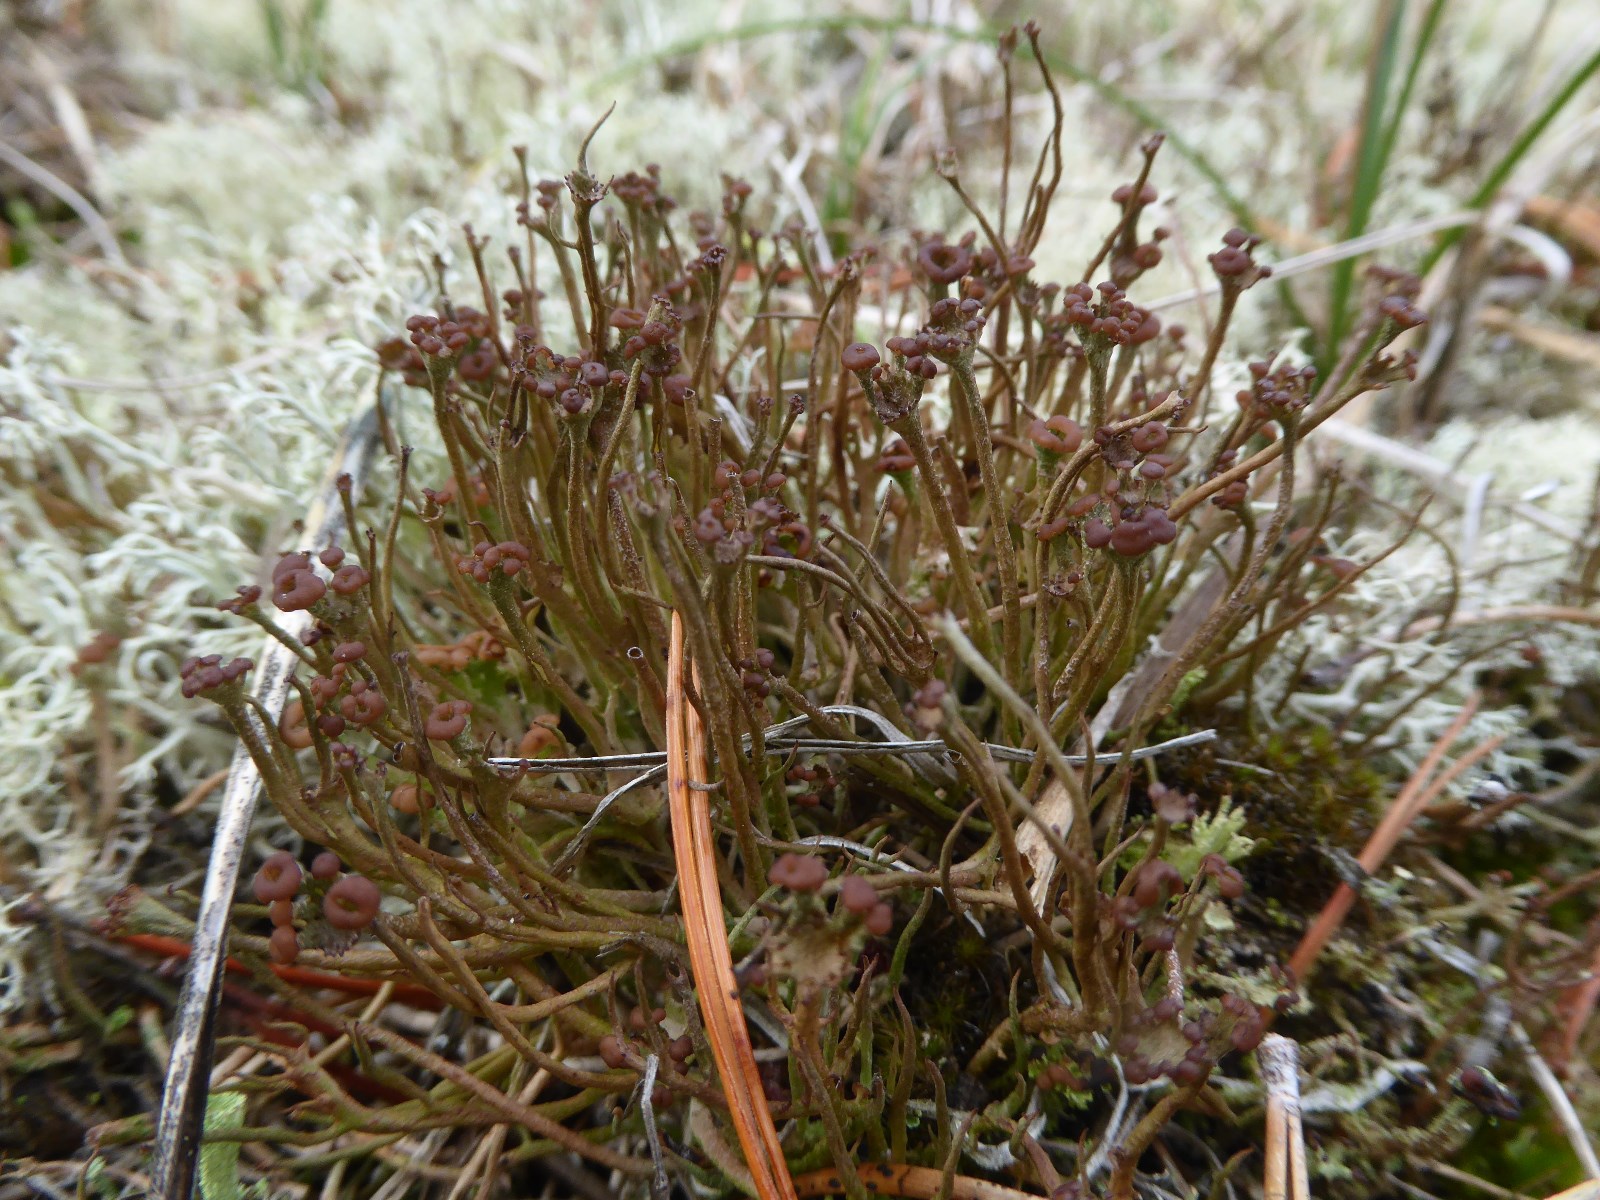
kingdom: Fungi
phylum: Ascomycota
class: Lecanoromycetes
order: Lecanorales
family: Cladoniaceae
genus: Cladonia
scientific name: Cladonia gracilis
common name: slank bægerlav
